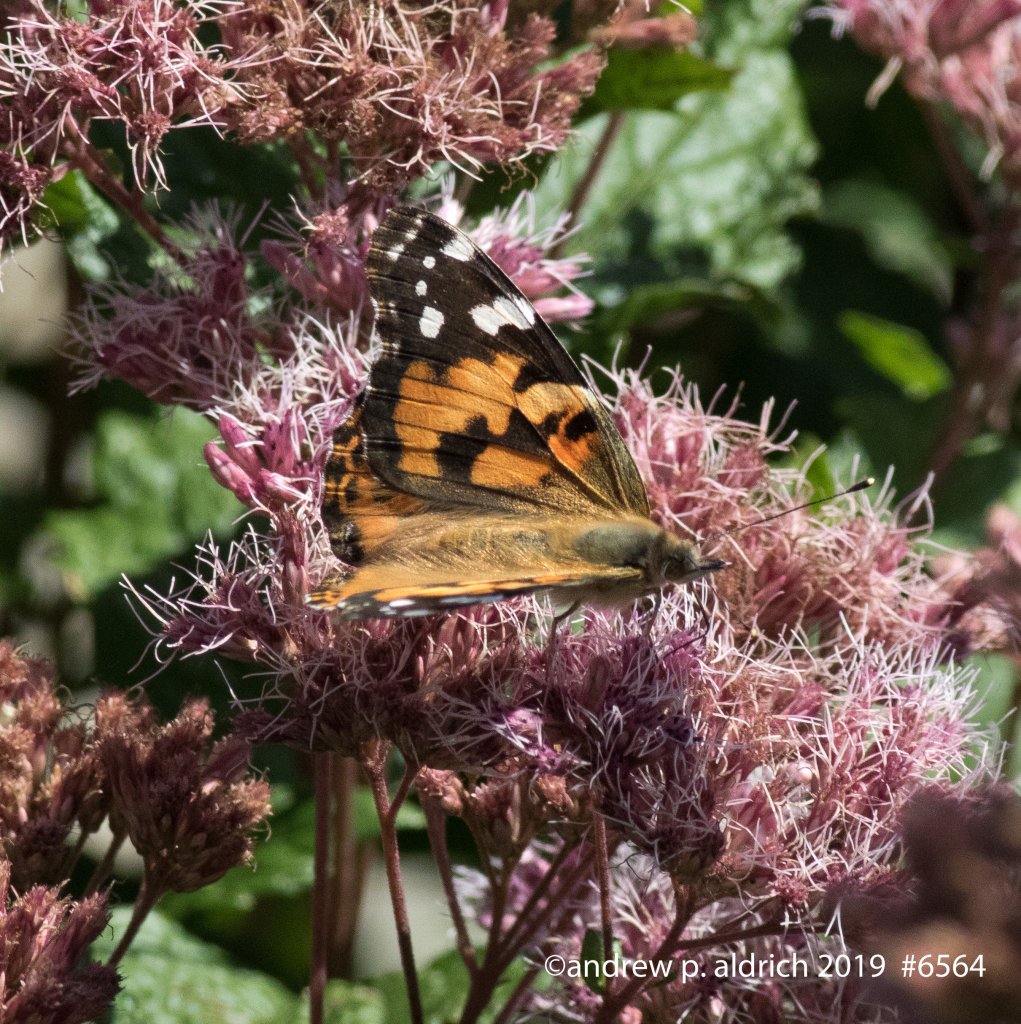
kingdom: Animalia
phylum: Arthropoda
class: Insecta
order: Lepidoptera
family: Nymphalidae
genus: Vanessa
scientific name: Vanessa cardui
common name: Painted Lady
